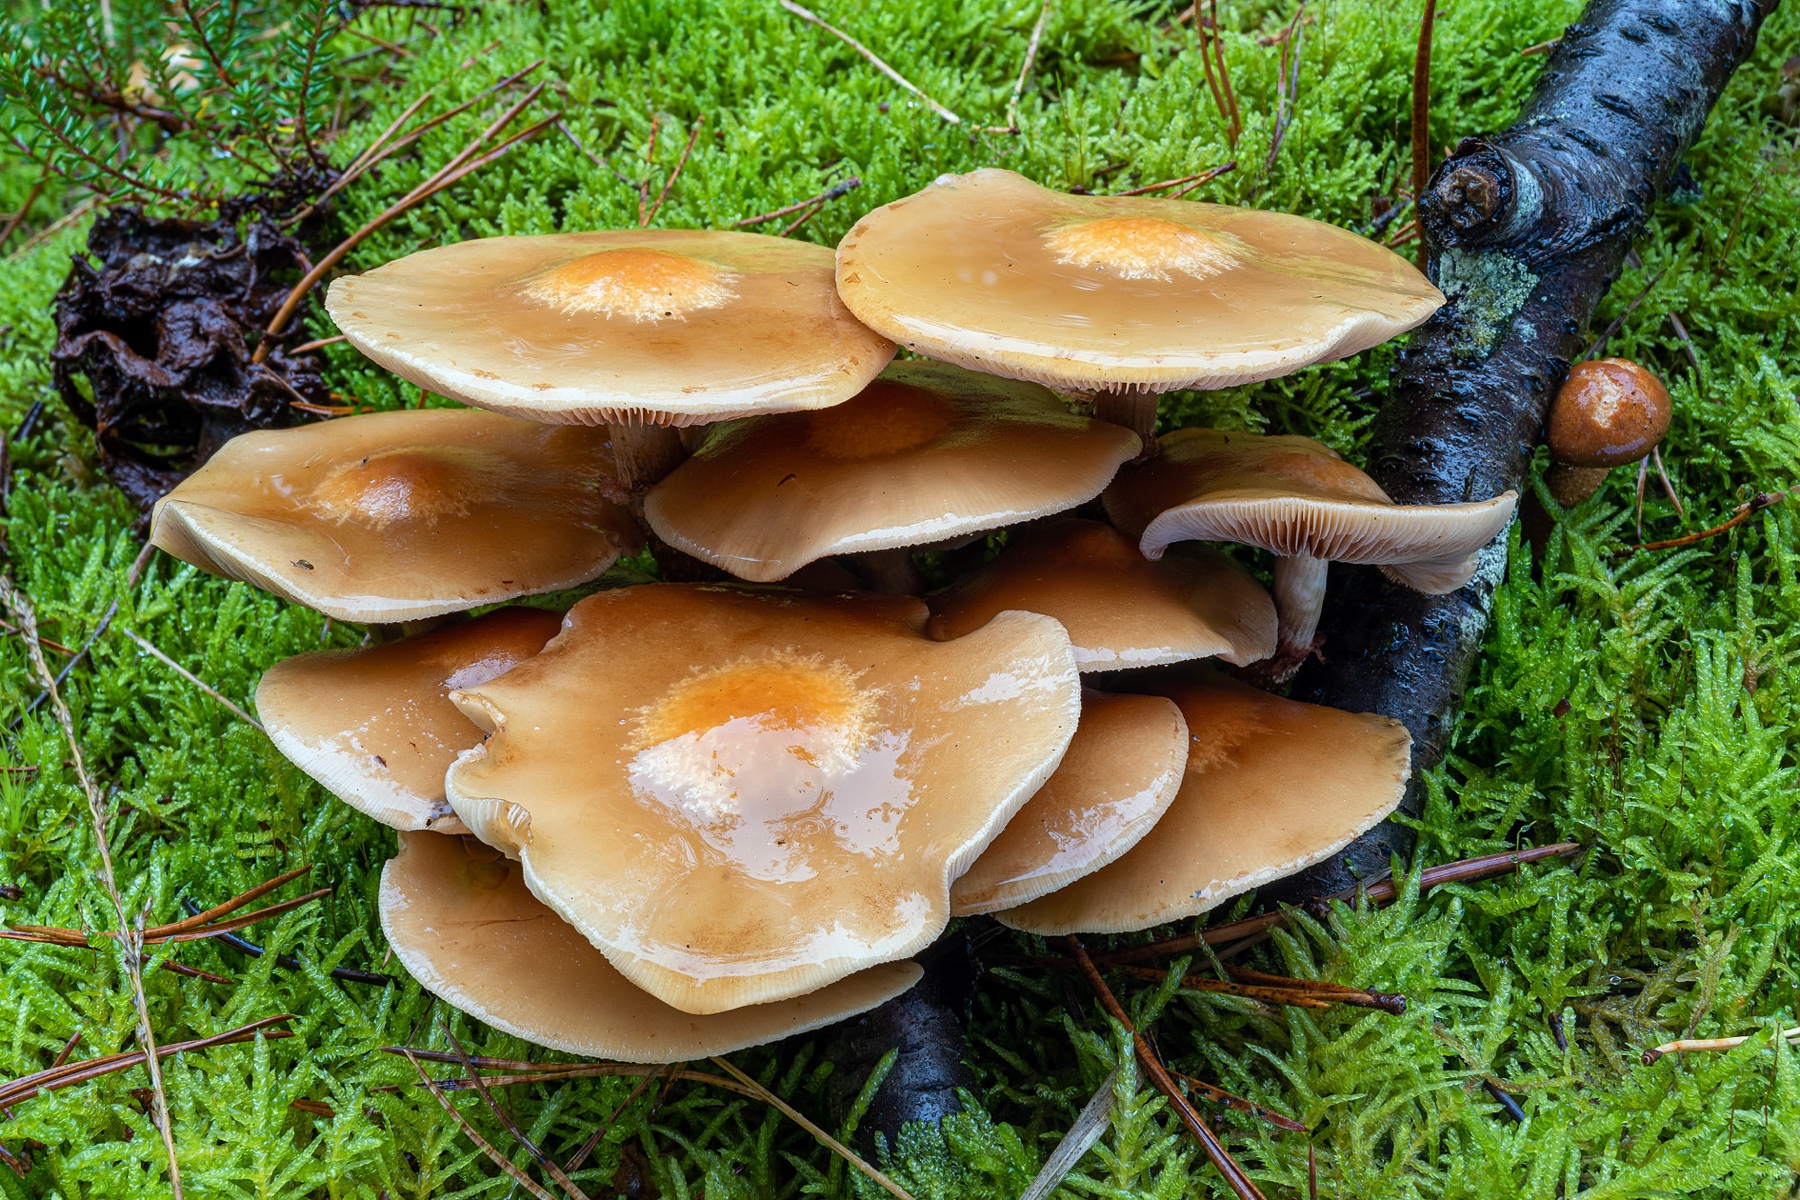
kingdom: Fungi
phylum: Basidiomycota
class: Agaricomycetes
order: Agaricales
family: Strophariaceae
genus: Kuehneromyces
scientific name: Kuehneromyces mutabilis
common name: foranderlig skælhat
